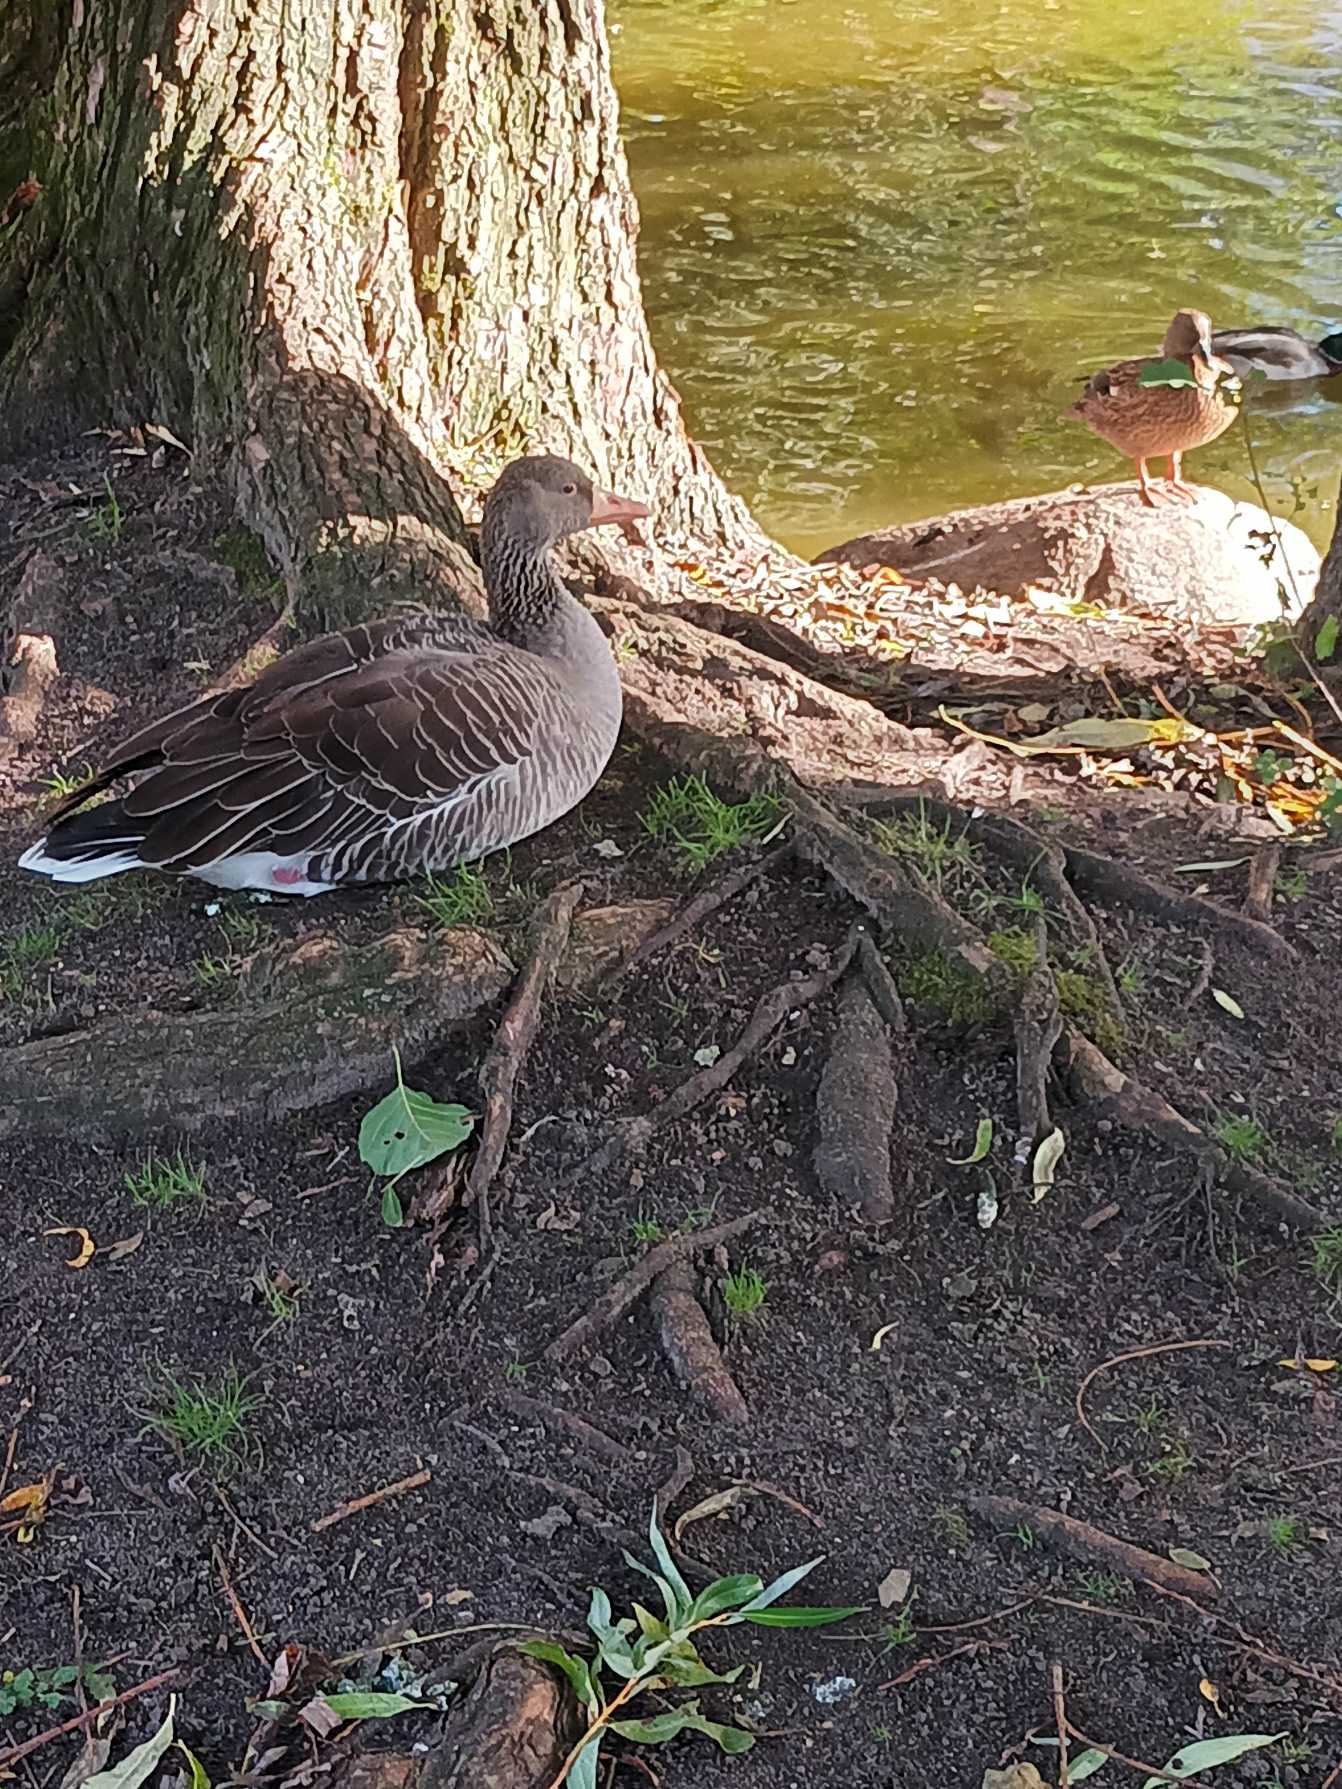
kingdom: Animalia
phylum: Chordata
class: Aves
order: Anseriformes
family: Anatidae
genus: Anser
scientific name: Anser anser
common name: Grågås
